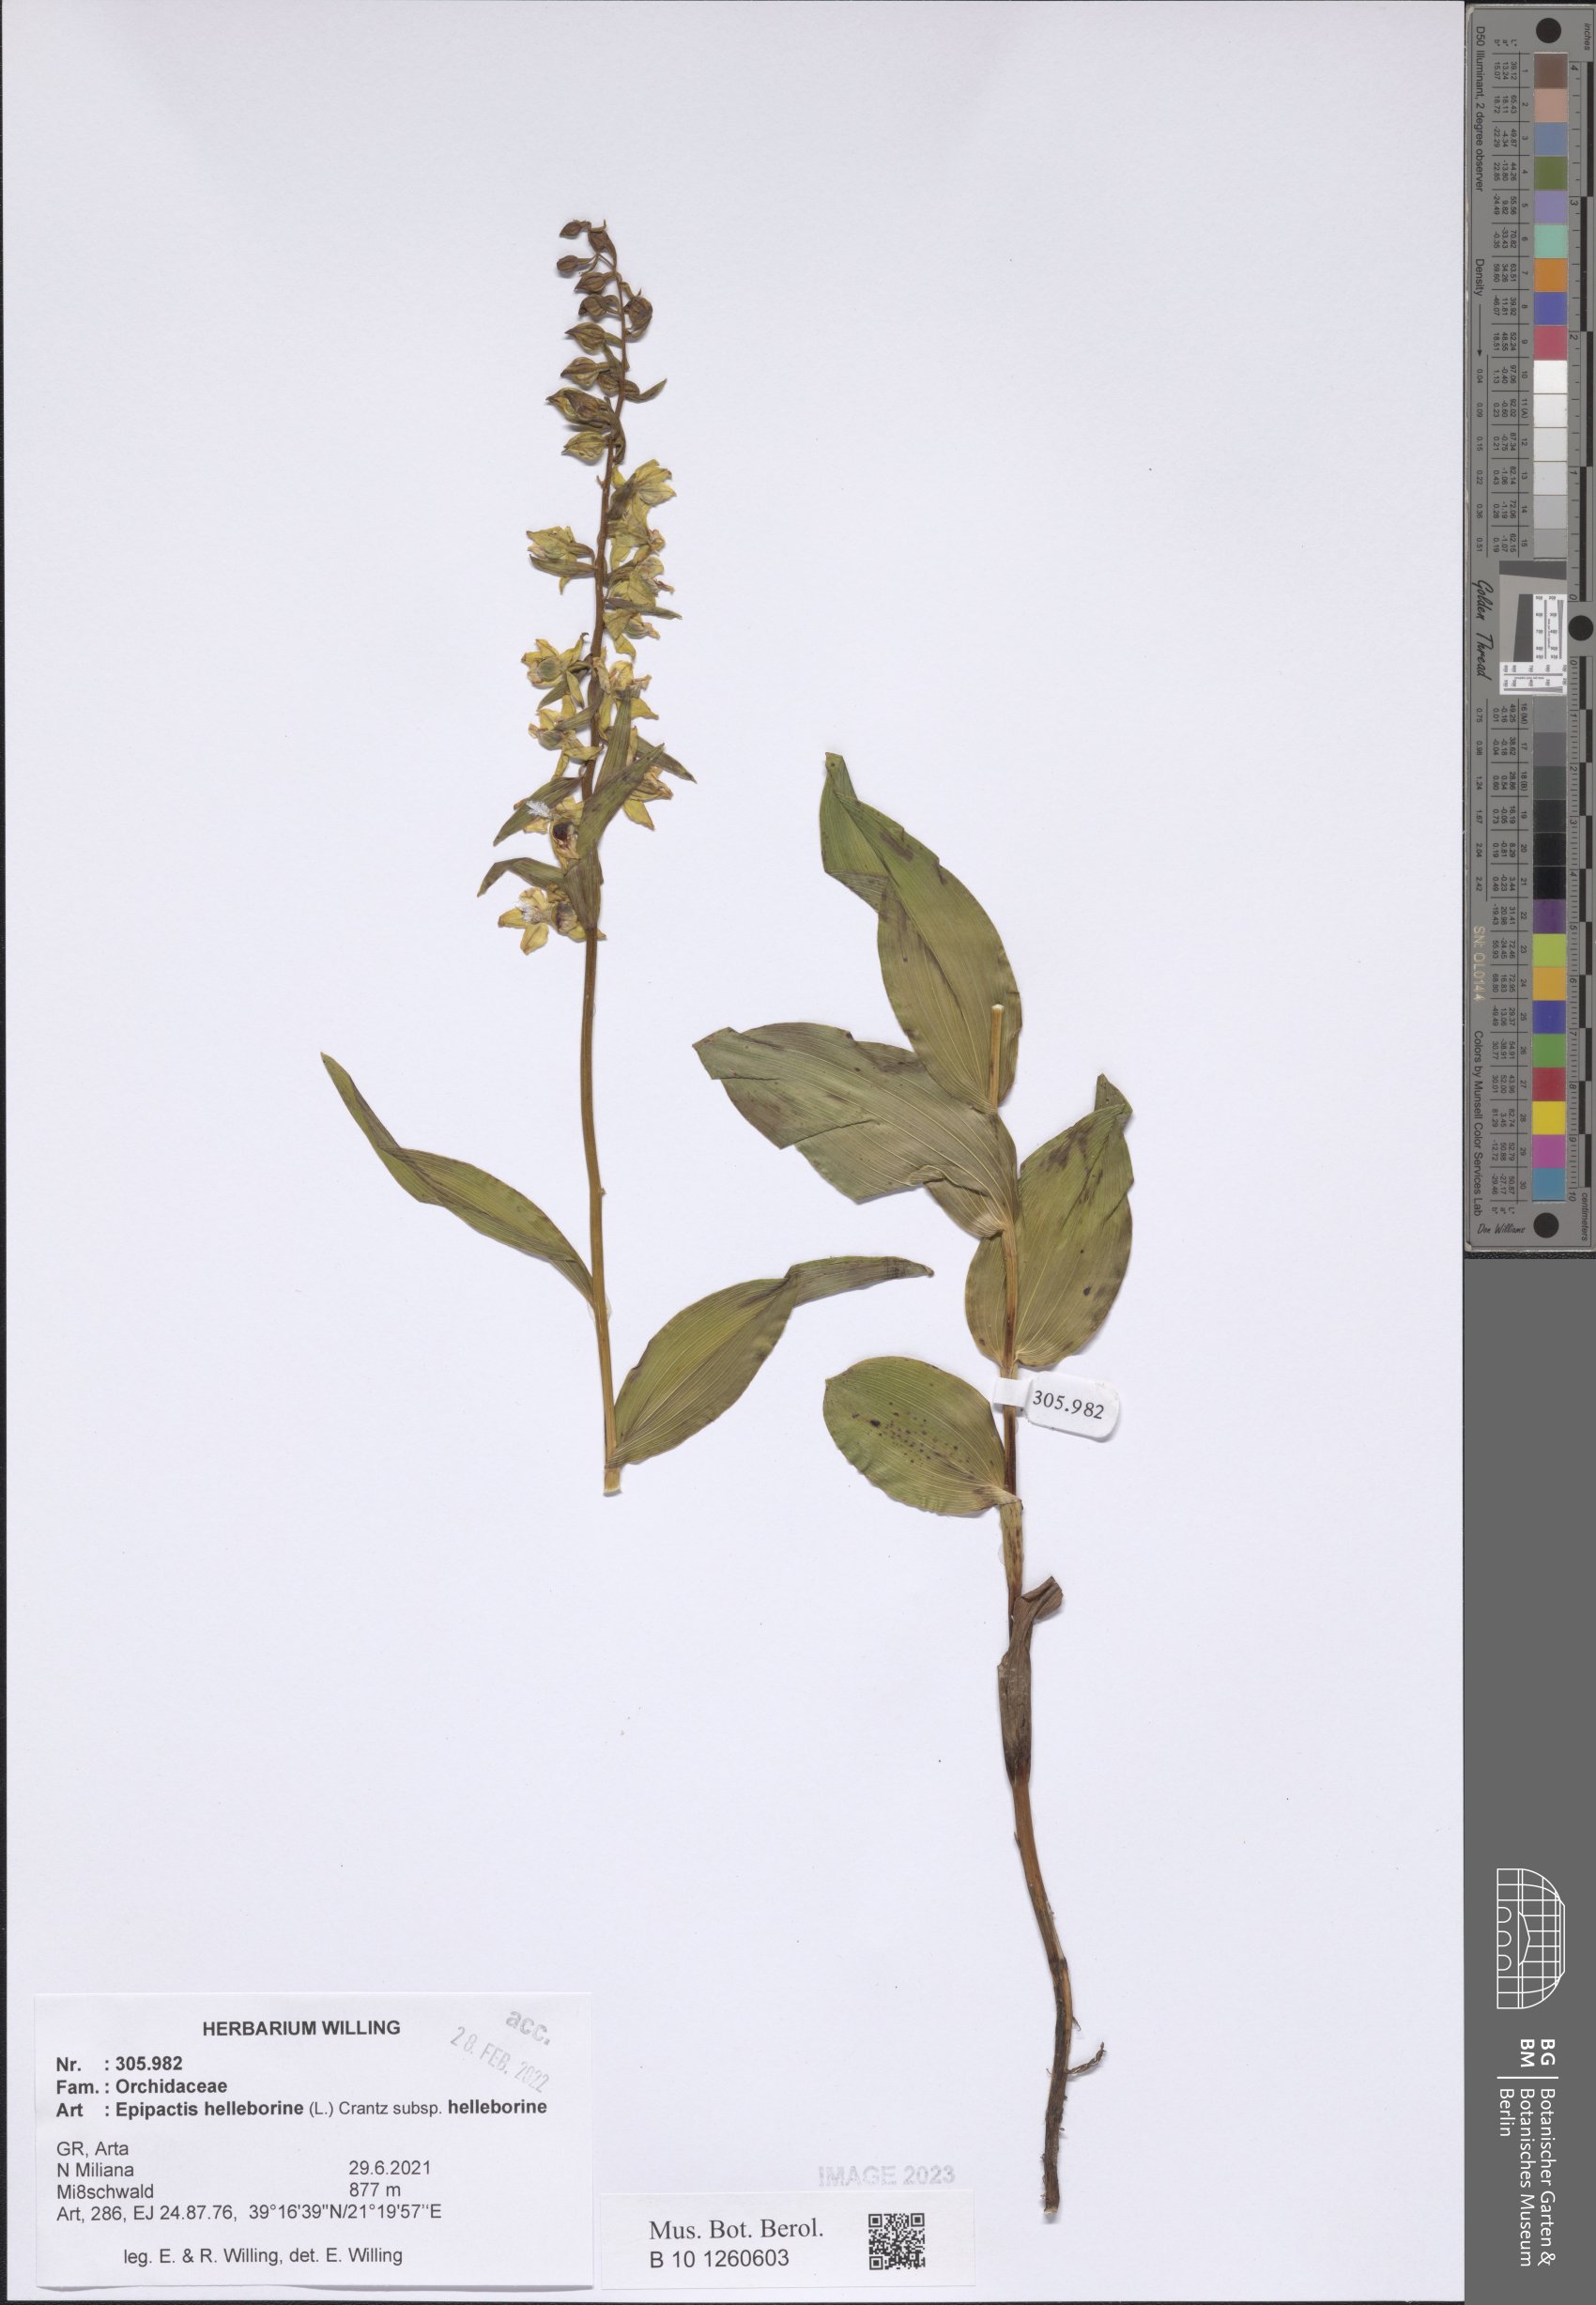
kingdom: Plantae
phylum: Tracheophyta
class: Liliopsida
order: Asparagales
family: Orchidaceae
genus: Epipactis
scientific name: Epipactis helleborine
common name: Broad-leaved helleborine
